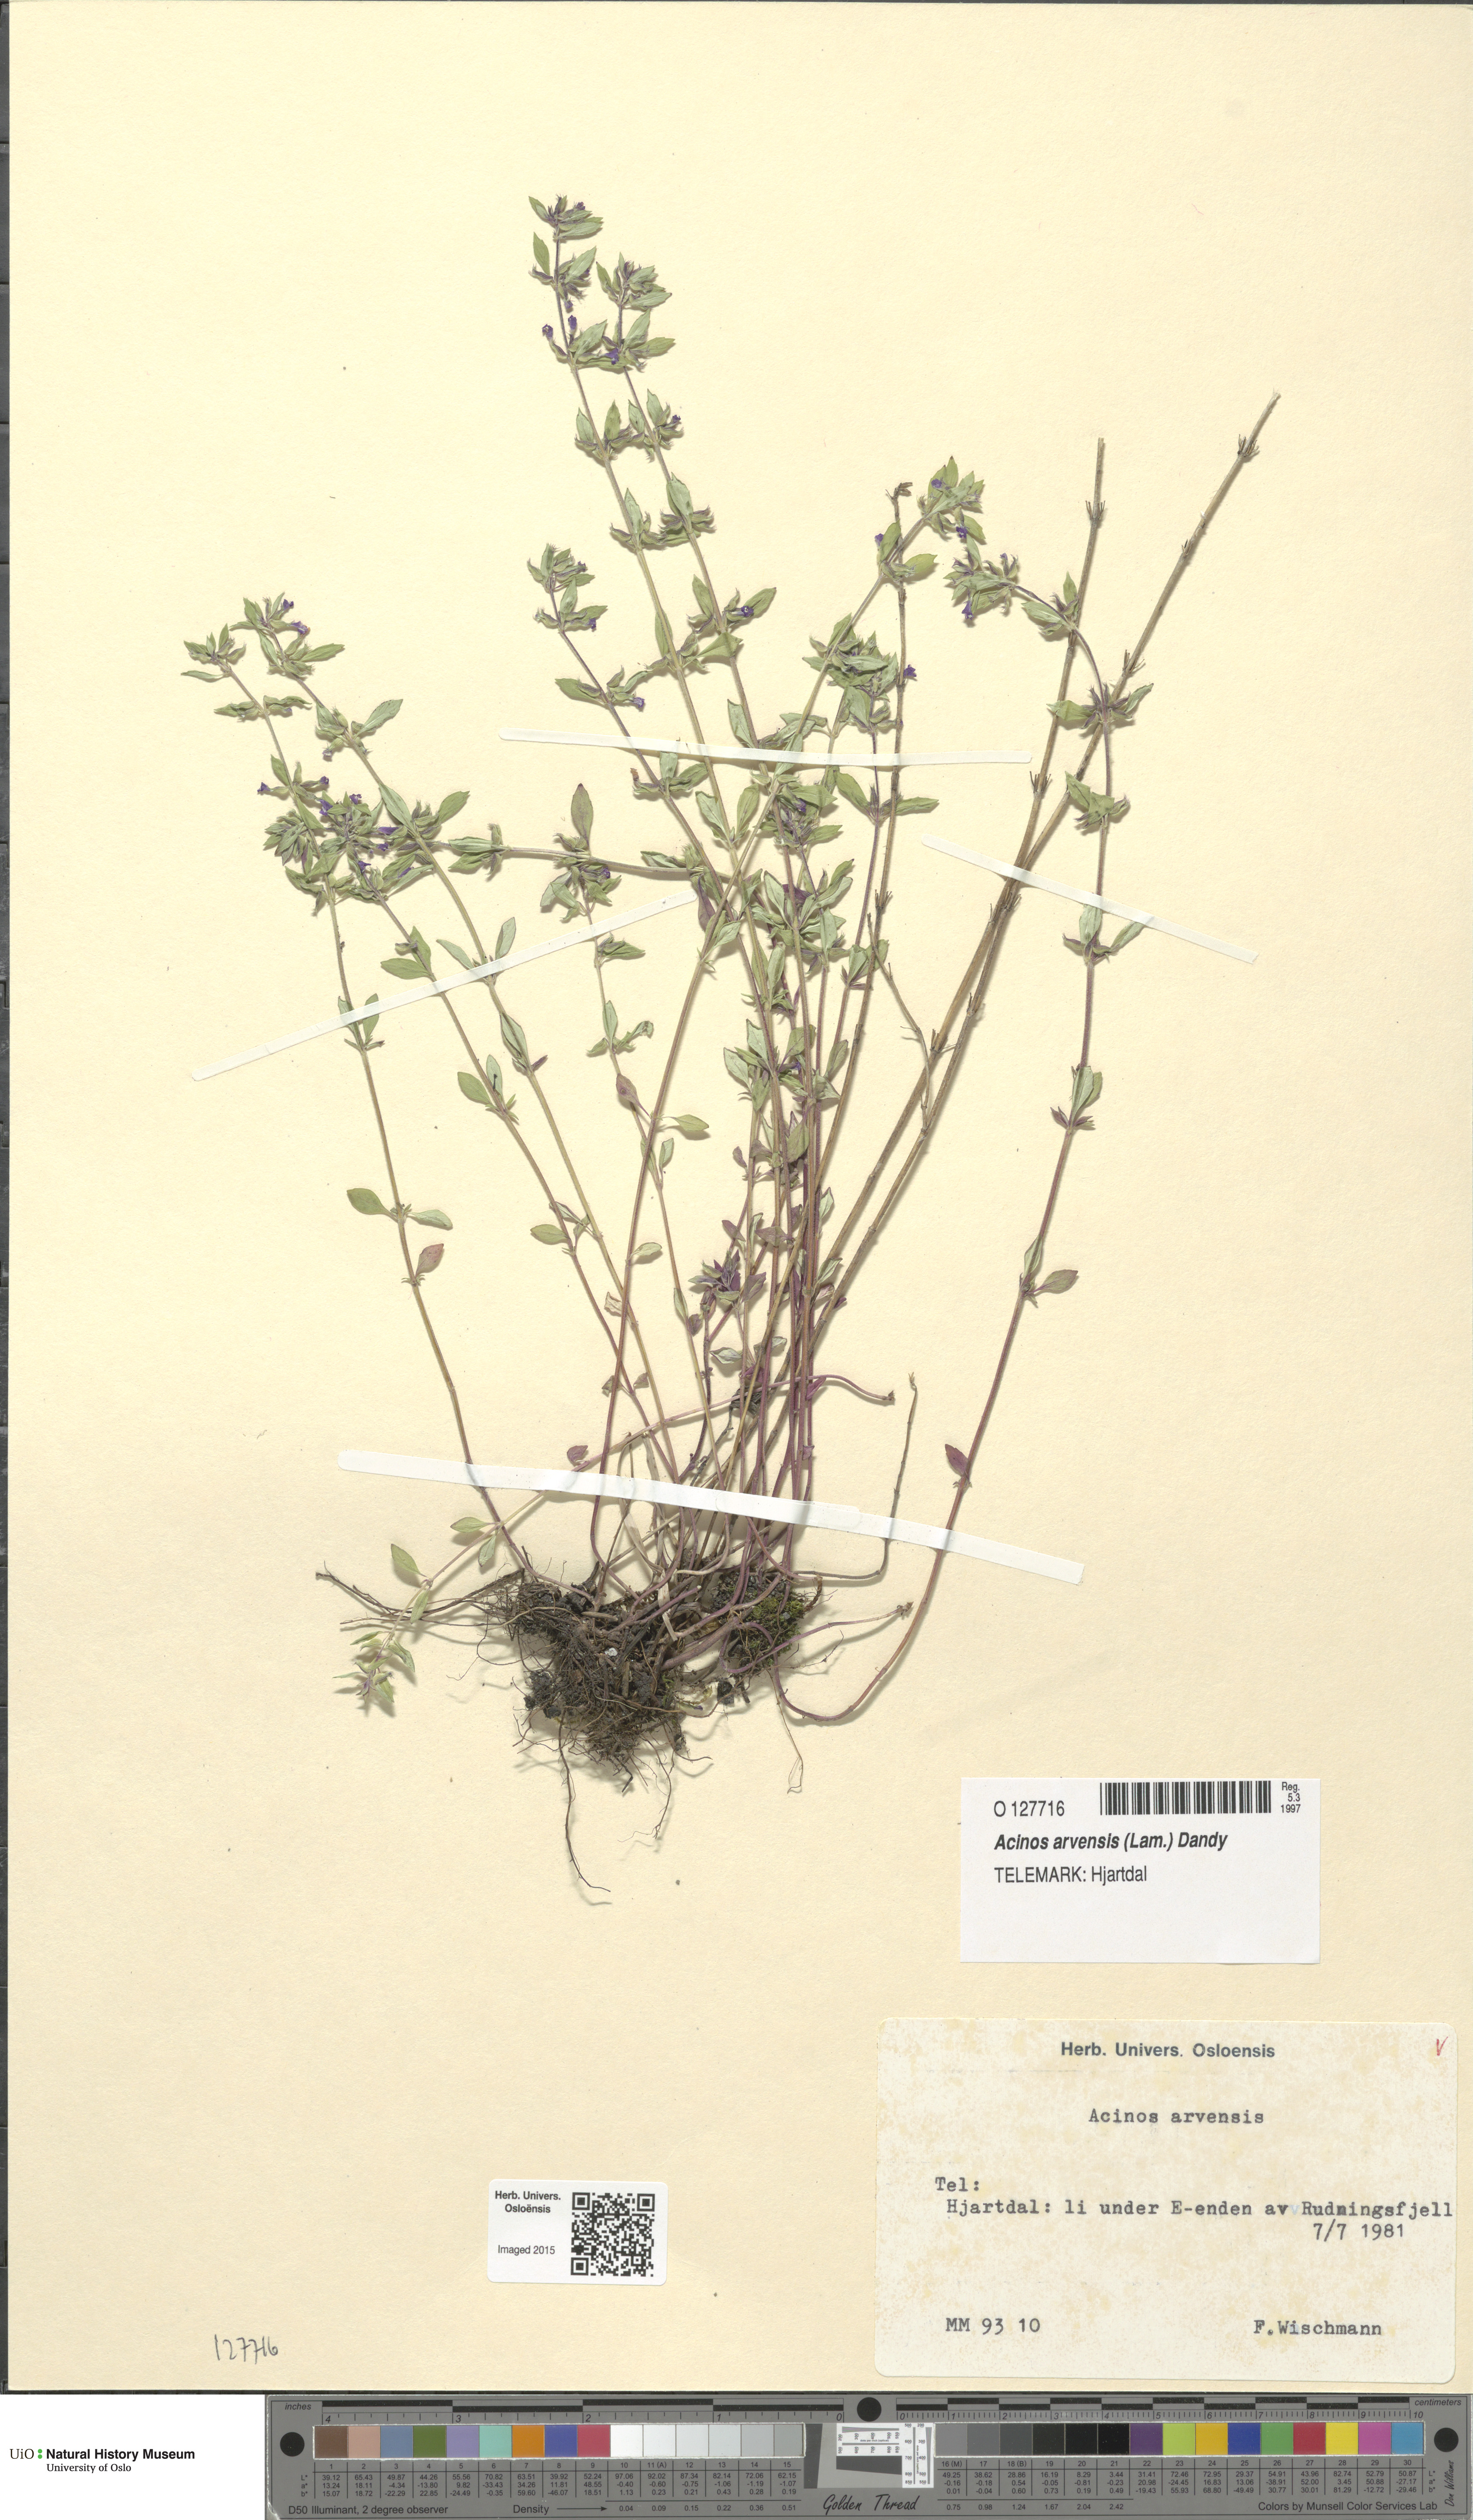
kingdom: Plantae
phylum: Tracheophyta
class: Magnoliopsida
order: Lamiales
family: Lamiaceae
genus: Clinopodium
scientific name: Clinopodium acinos
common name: Basil thyme
